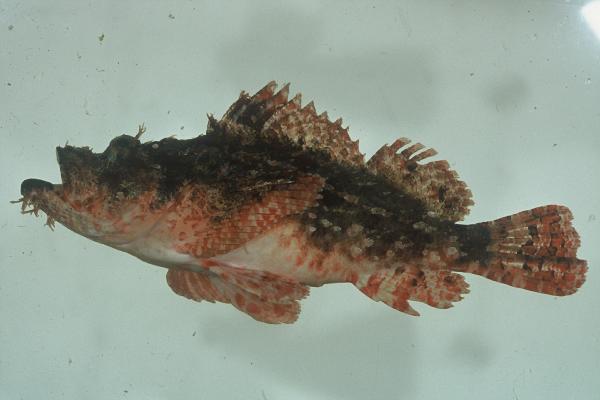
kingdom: Animalia
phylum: Chordata
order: Scorpaeniformes
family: Scorpaenidae
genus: Scorpaenopsis
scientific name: Scorpaenopsis venosa
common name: Raggy scorpionfish
